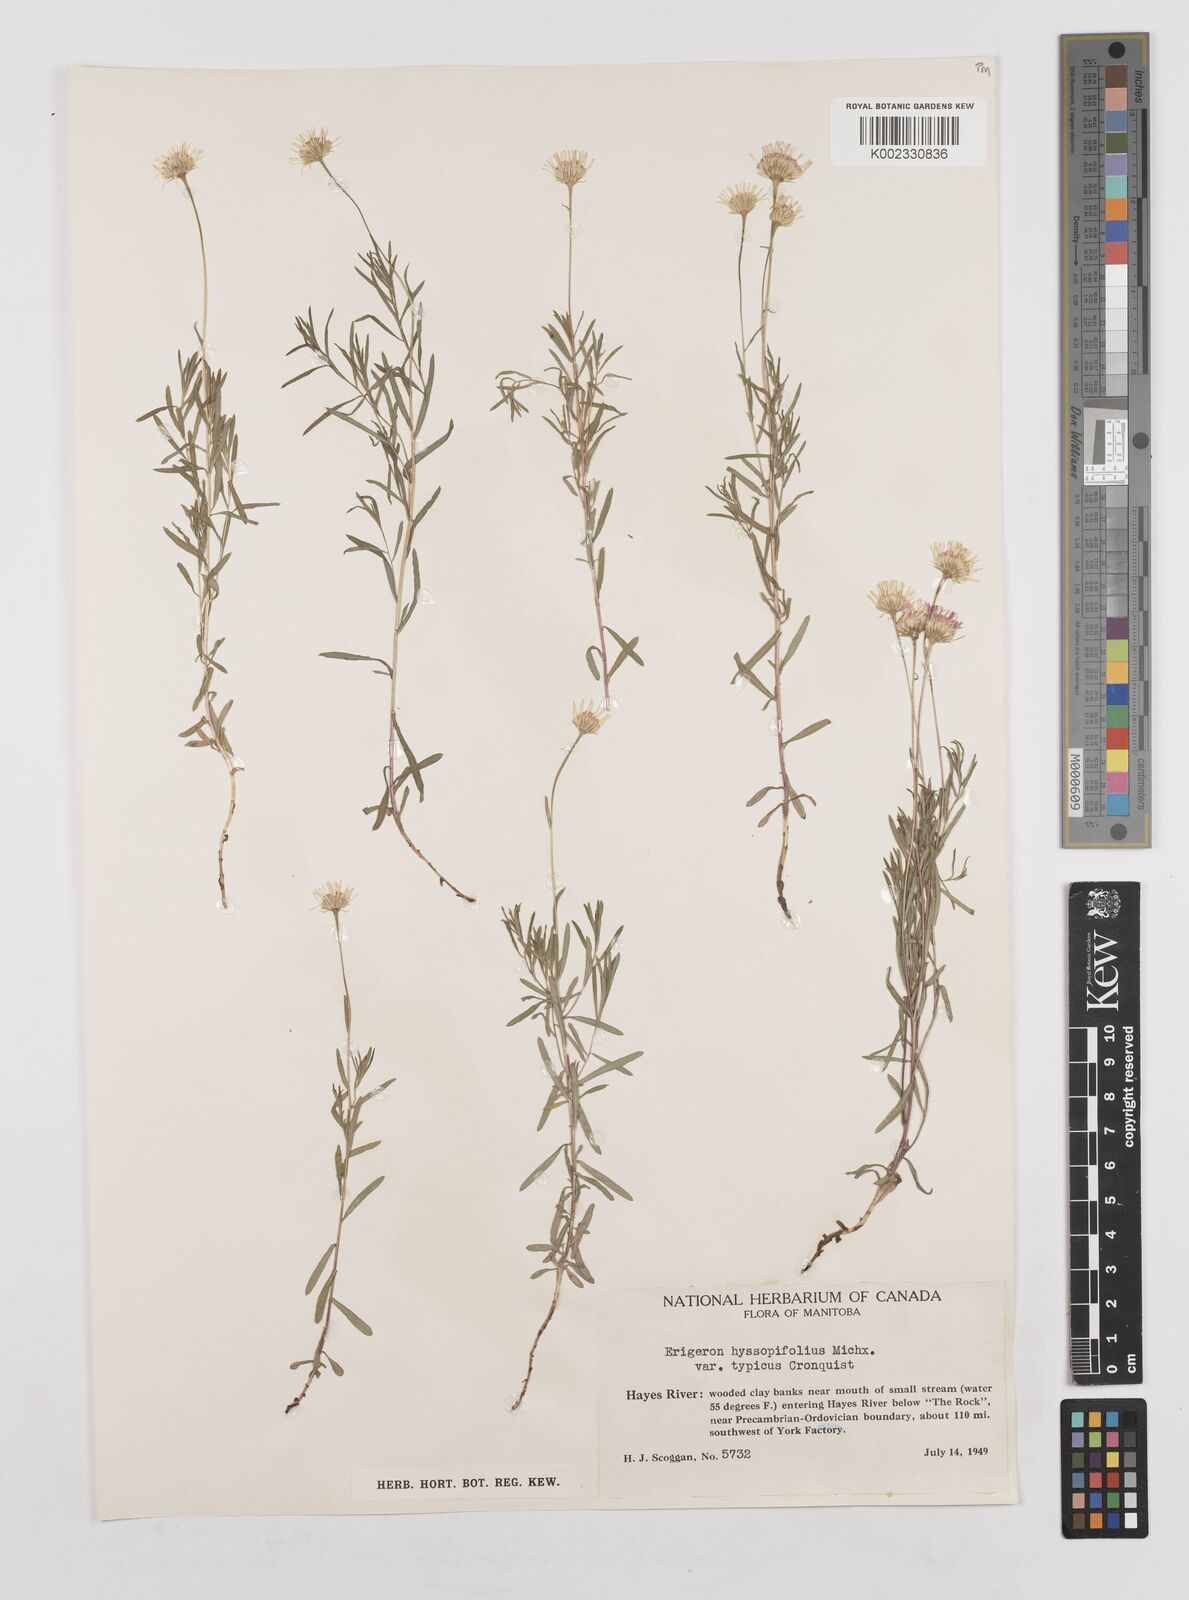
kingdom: Plantae
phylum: Tracheophyta
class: Magnoliopsida
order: Asterales
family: Asteraceae
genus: Erigeron
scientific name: Erigeron hyssopifolius
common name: Daisy fleabane
